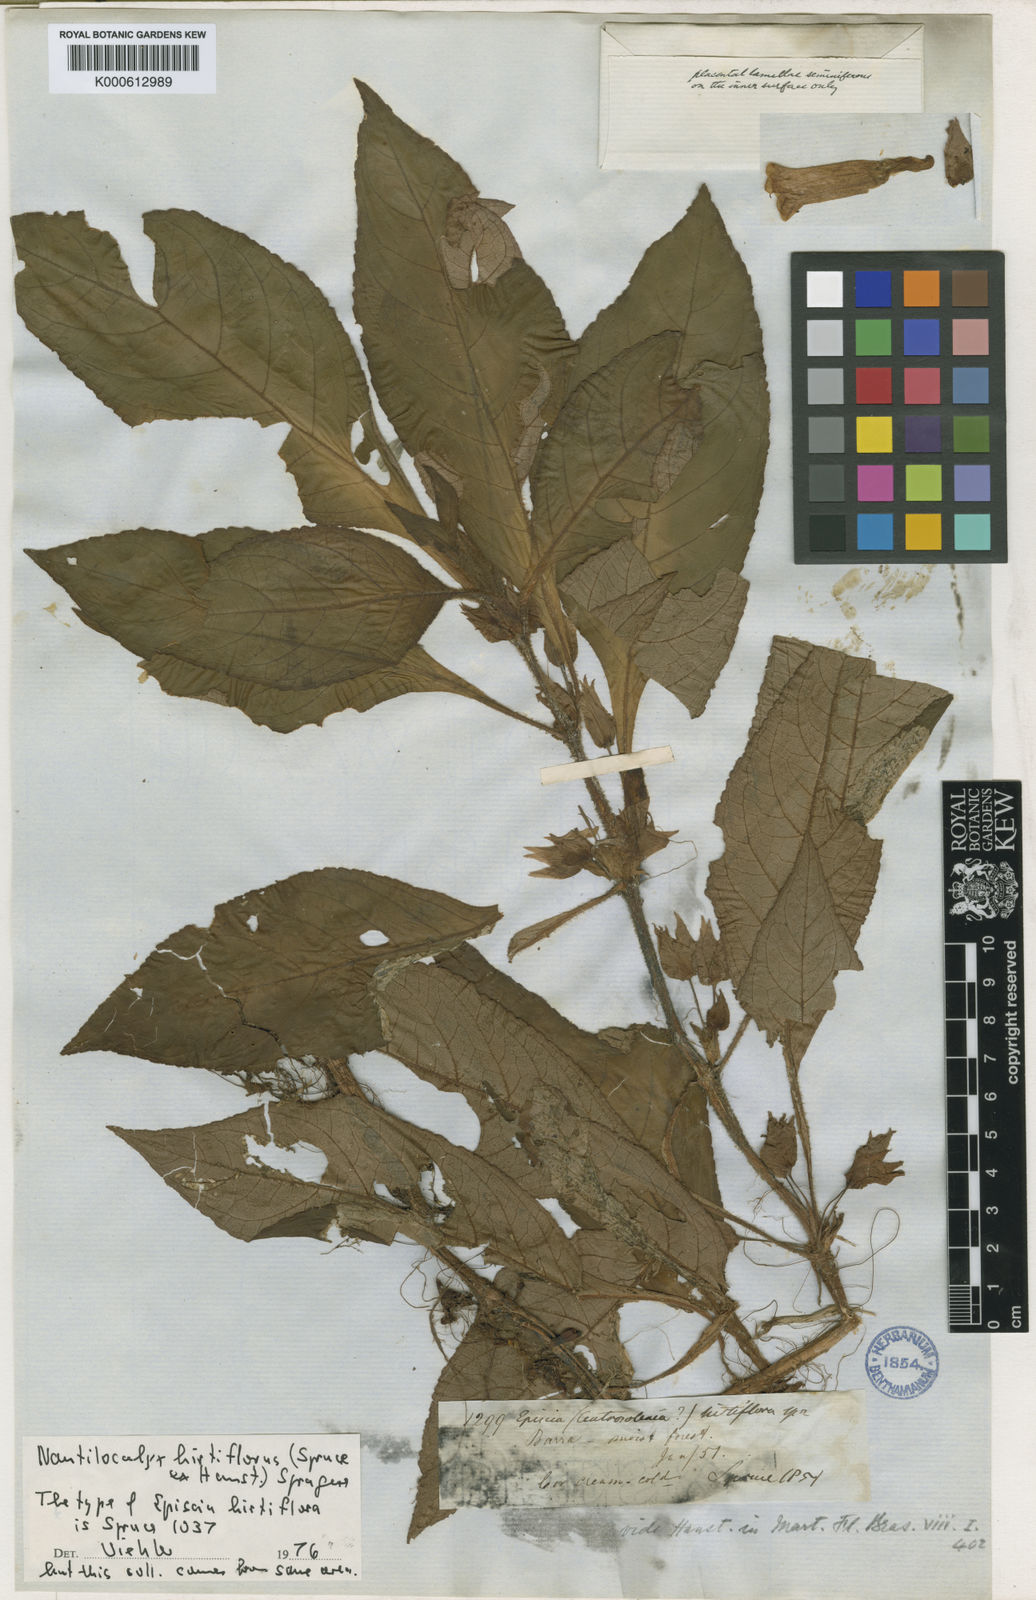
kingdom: Plantae
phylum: Tracheophyta
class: Magnoliopsida
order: Lamiales
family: Gesneriaceae
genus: Nautilocalyx
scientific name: Nautilocalyx hirtiflorus
